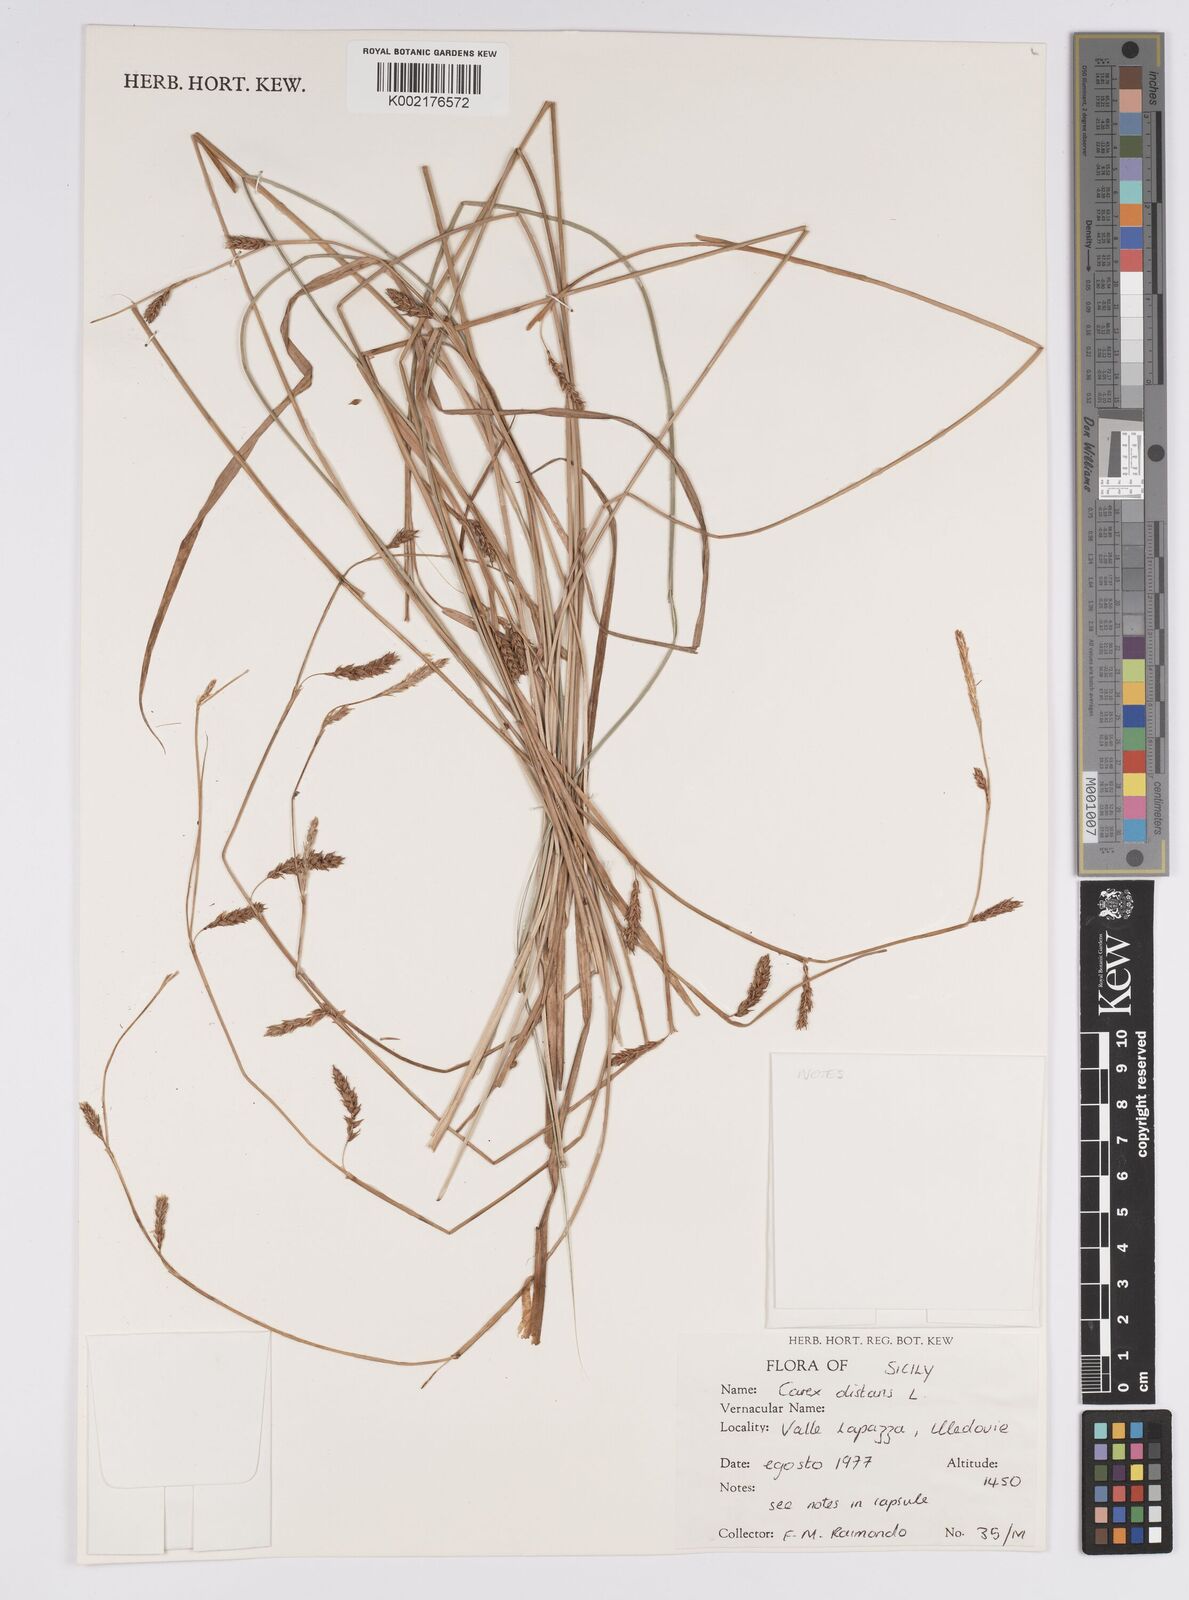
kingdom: Plantae
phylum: Tracheophyta
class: Liliopsida
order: Poales
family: Cyperaceae
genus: Carex
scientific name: Carex distans
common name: Distant sedge
